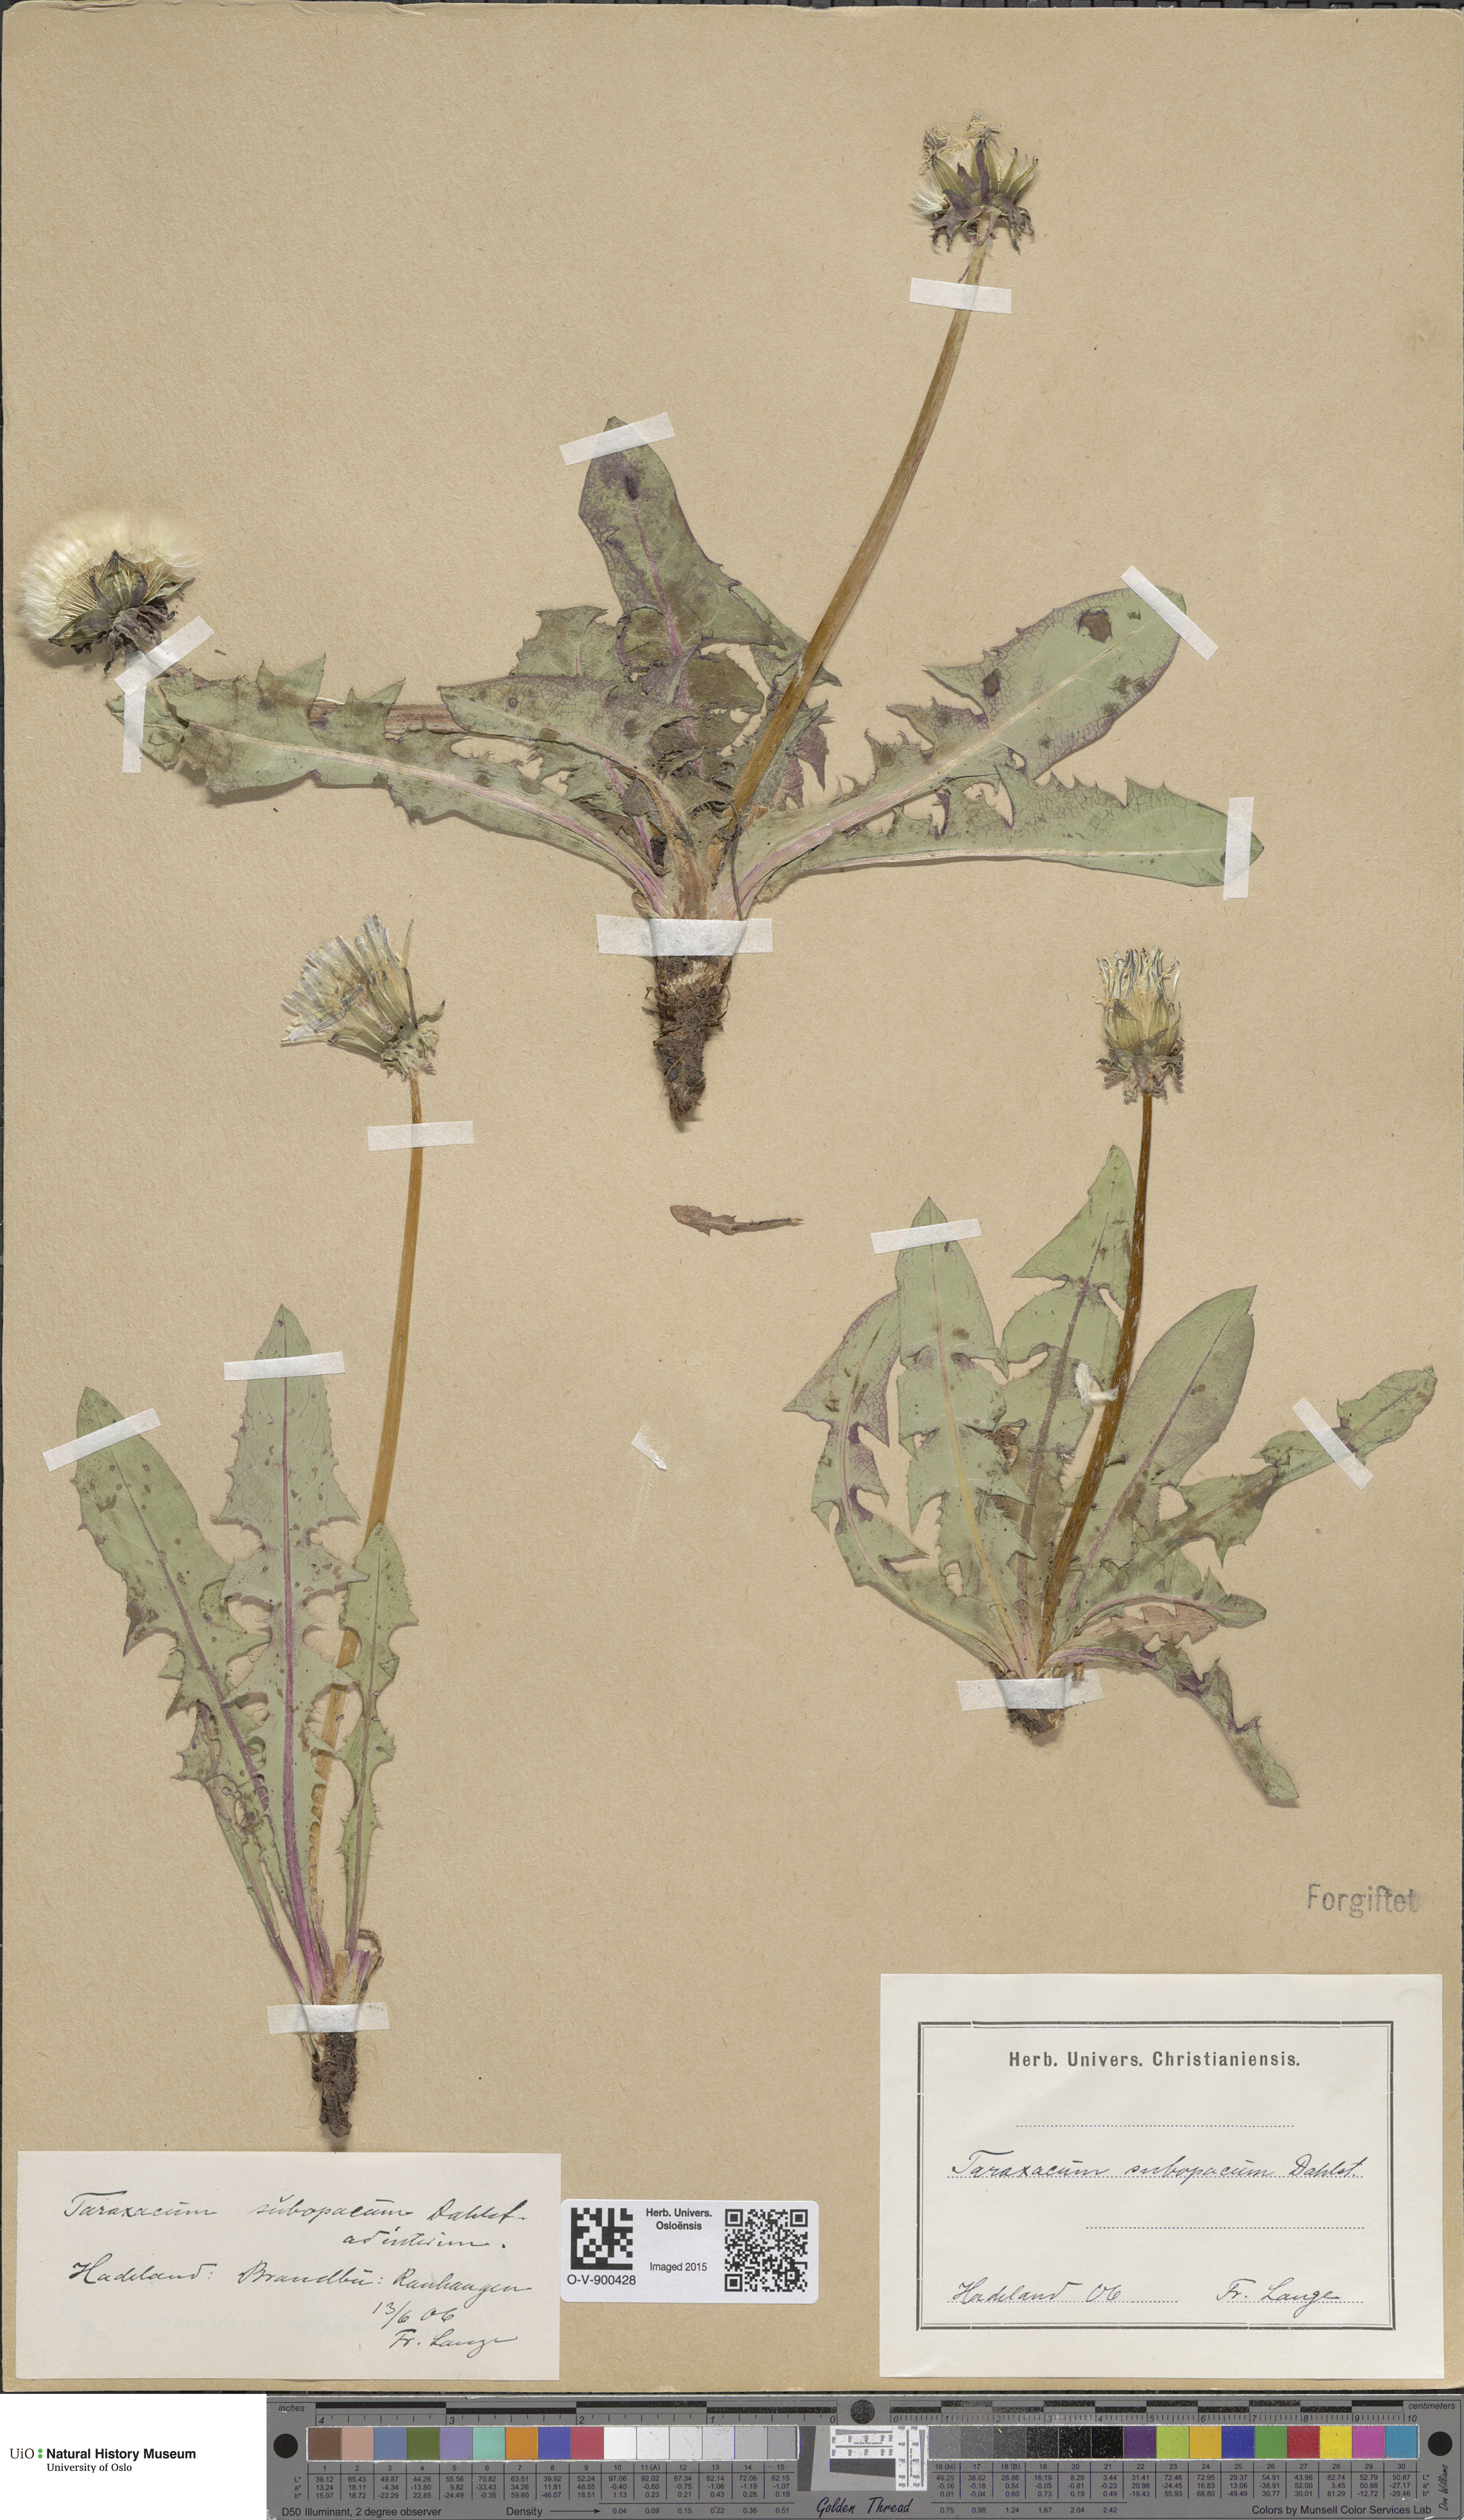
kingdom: Plantae
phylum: Tracheophyta
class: Magnoliopsida
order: Asterales
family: Asteraceae
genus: Taraxacum
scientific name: Taraxacum subopacum
